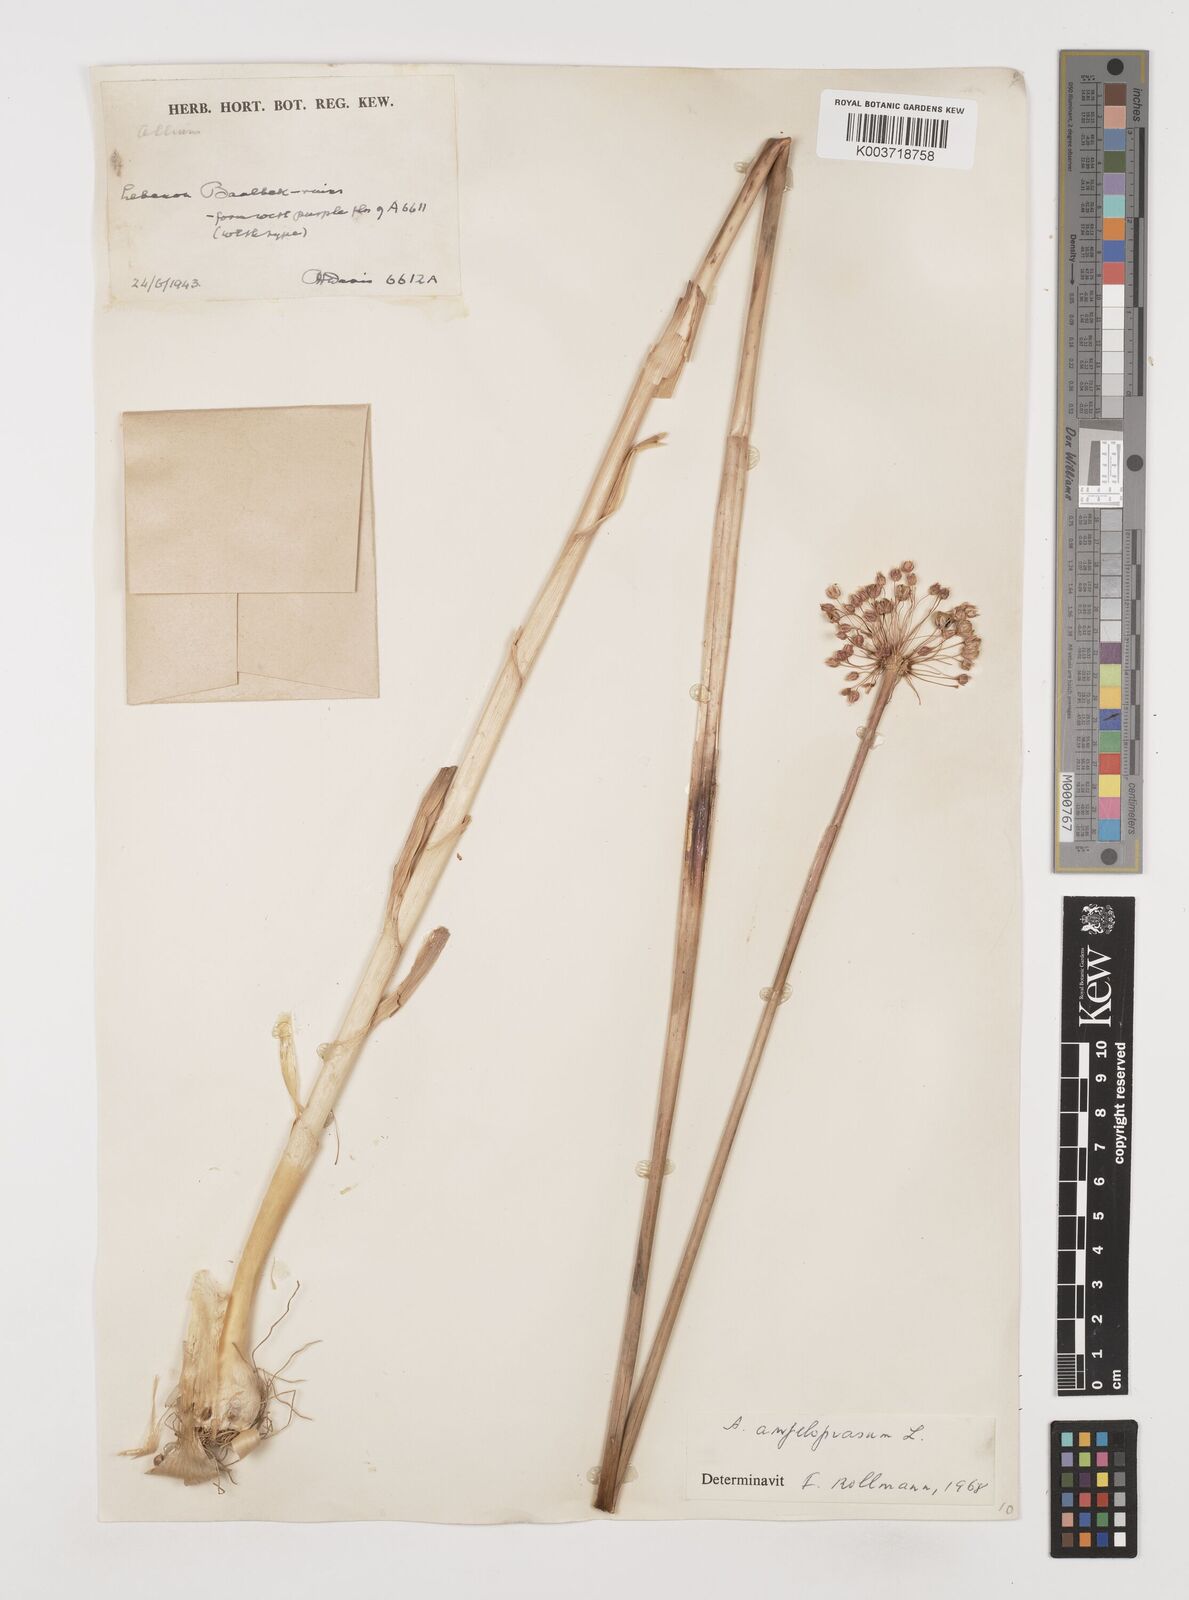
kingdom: Plantae
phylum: Tracheophyta
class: Liliopsida
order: Asparagales
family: Amaryllidaceae
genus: Allium
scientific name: Allium rotundum
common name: Sand leek
